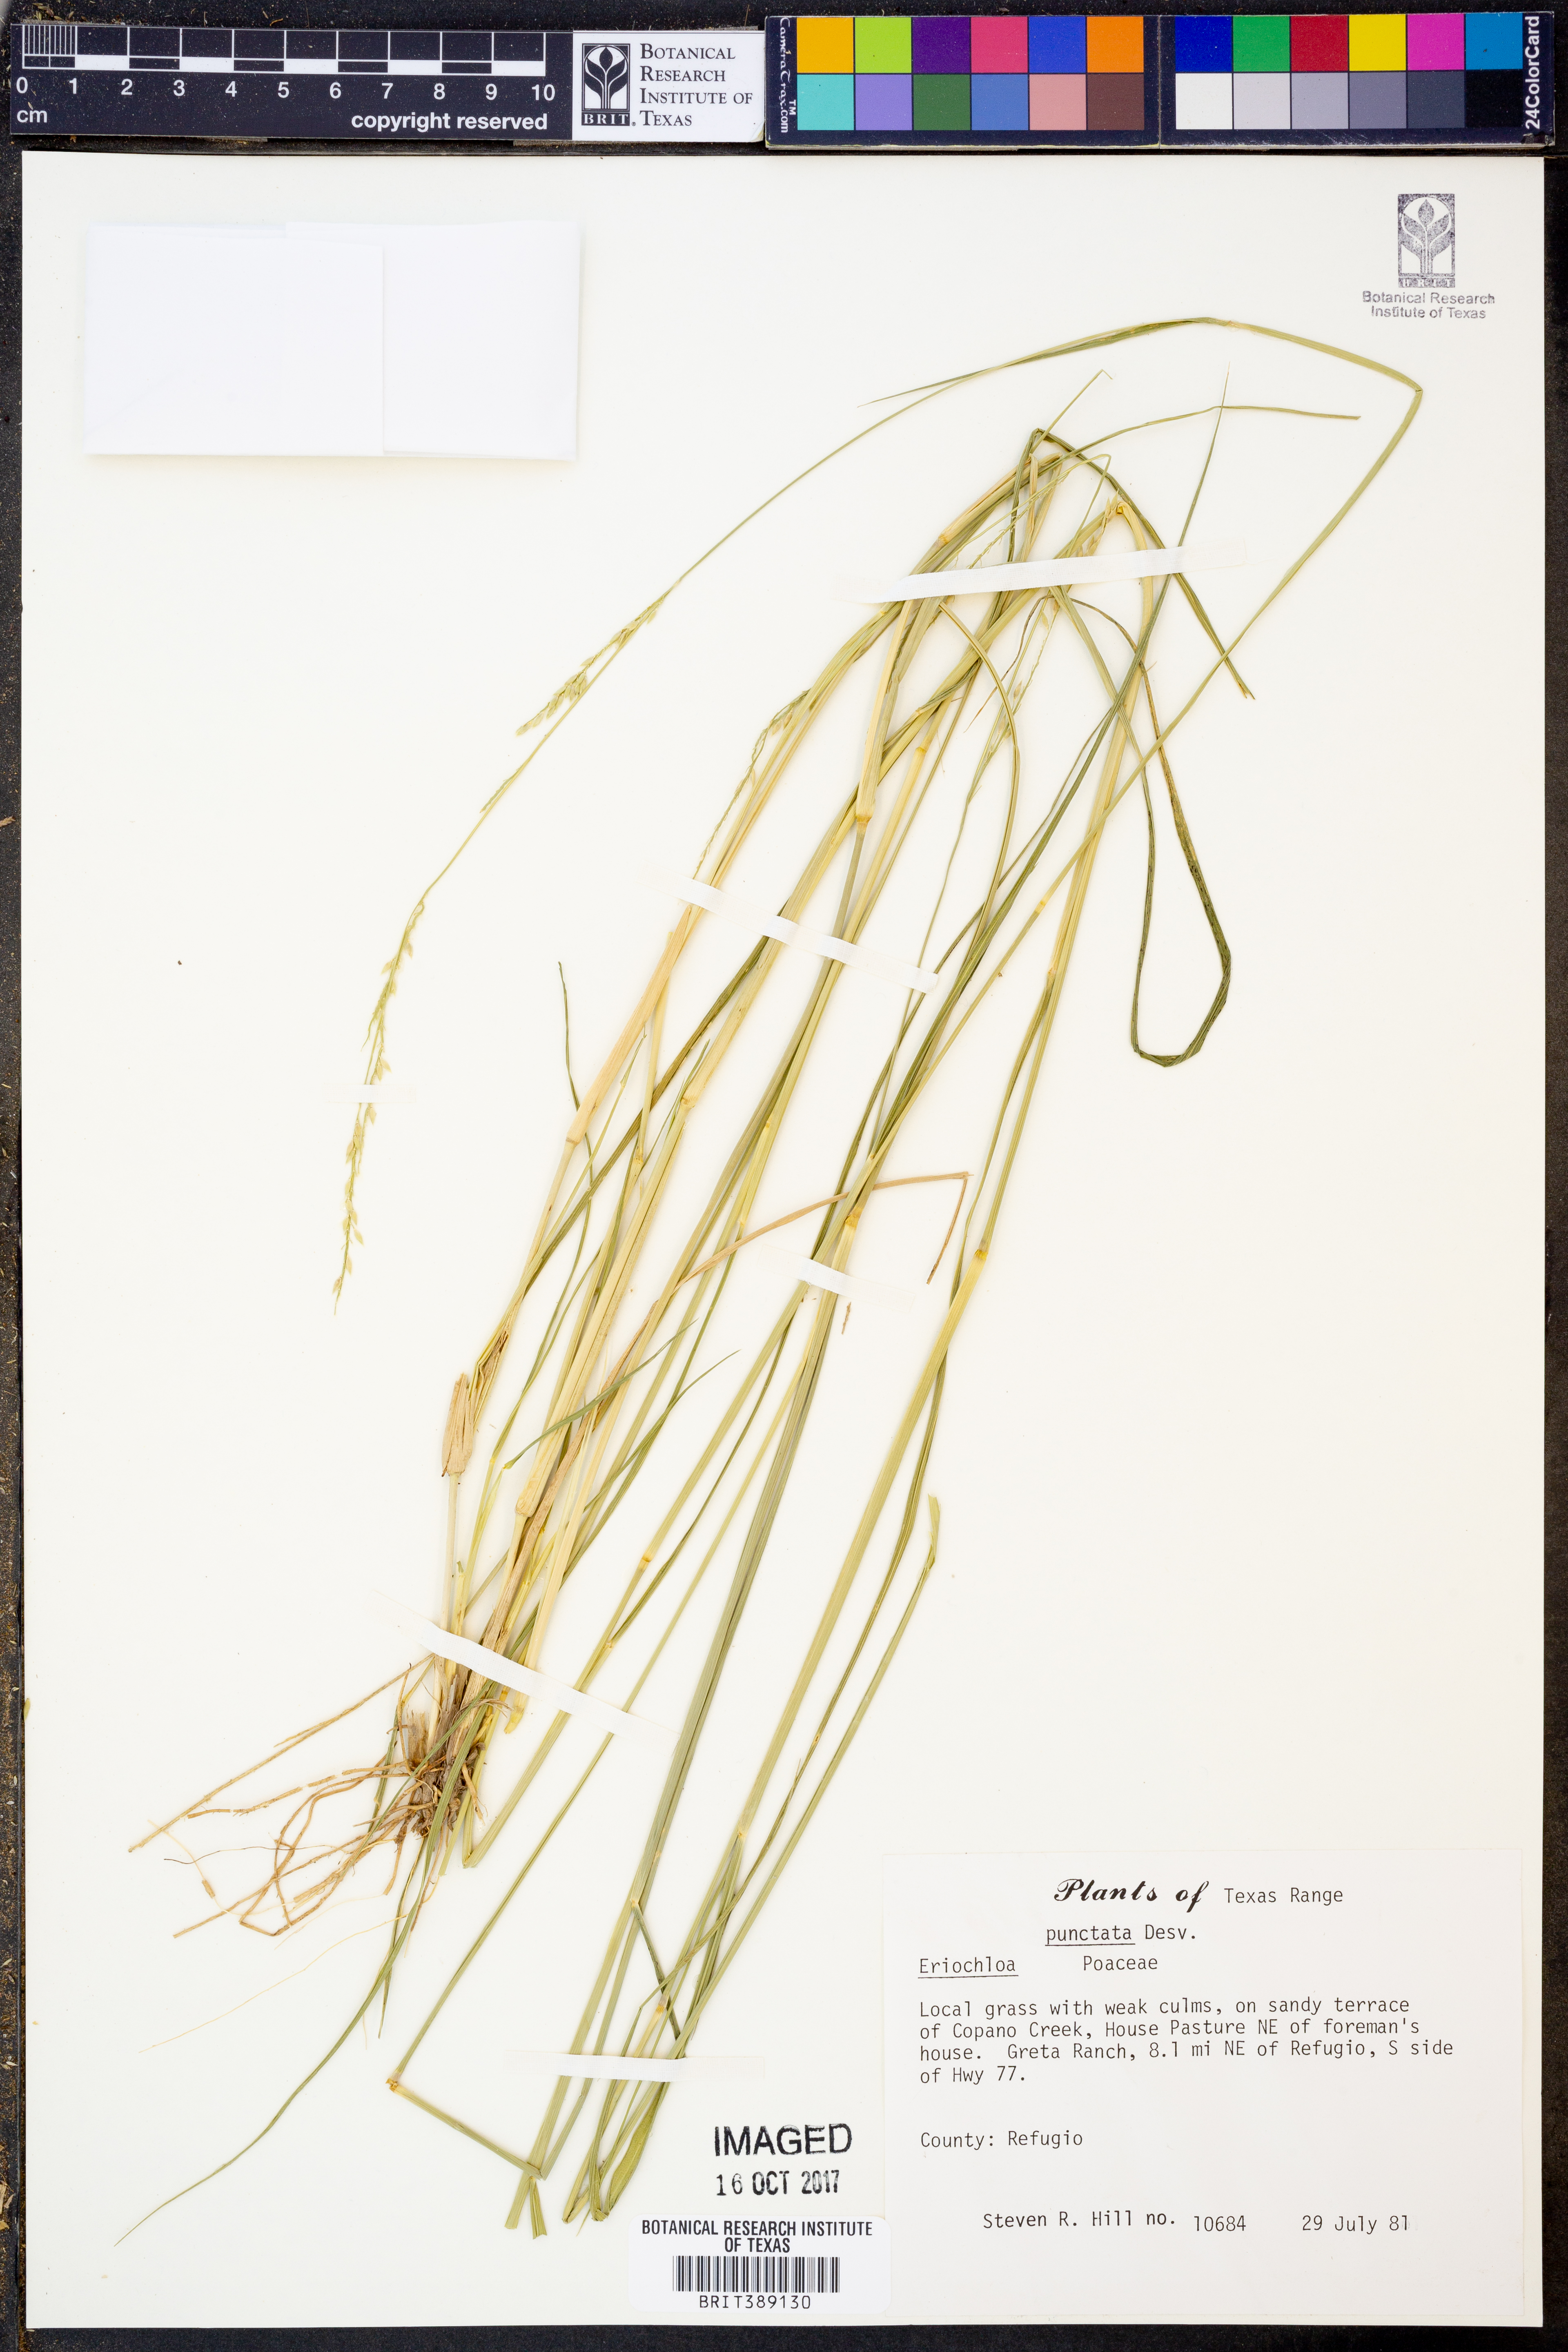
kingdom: Plantae
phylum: Tracheophyta
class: Liliopsida
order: Poales
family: Poaceae
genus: Eriochloa
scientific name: Eriochloa
